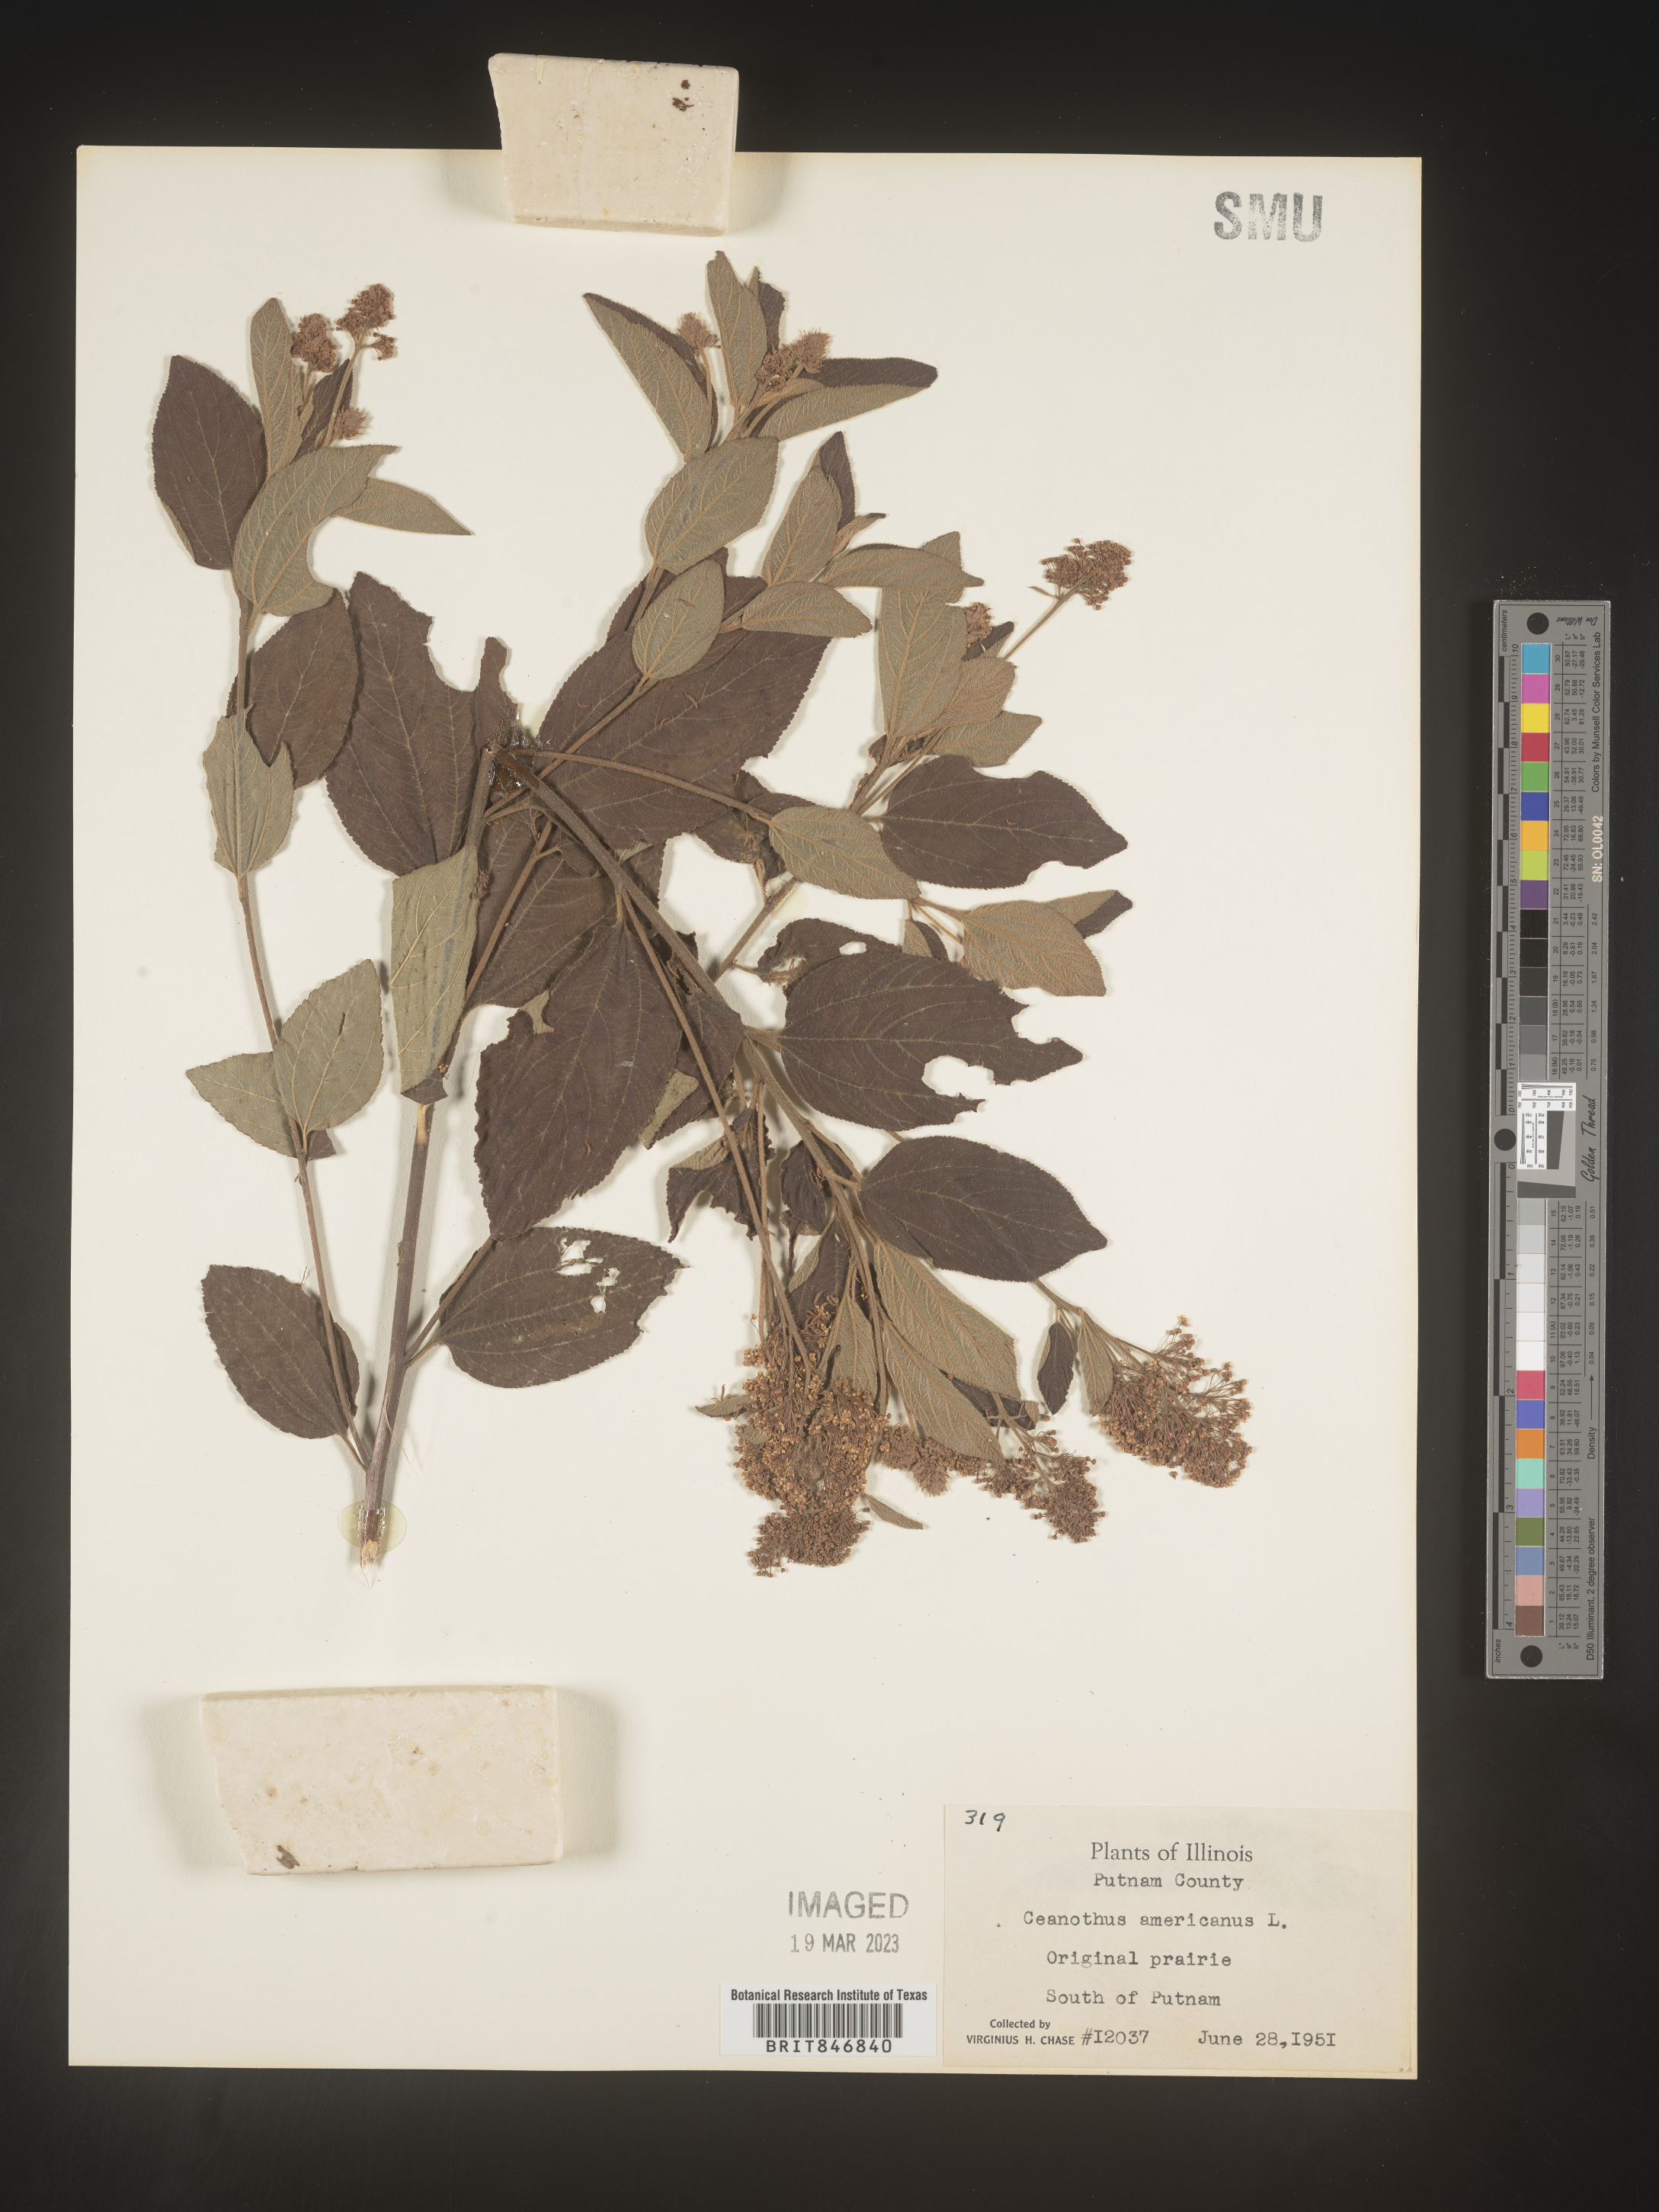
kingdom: Plantae
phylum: Tracheophyta
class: Magnoliopsida
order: Rosales
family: Rhamnaceae
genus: Ceanothus
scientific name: Ceanothus americanus
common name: Redroot
